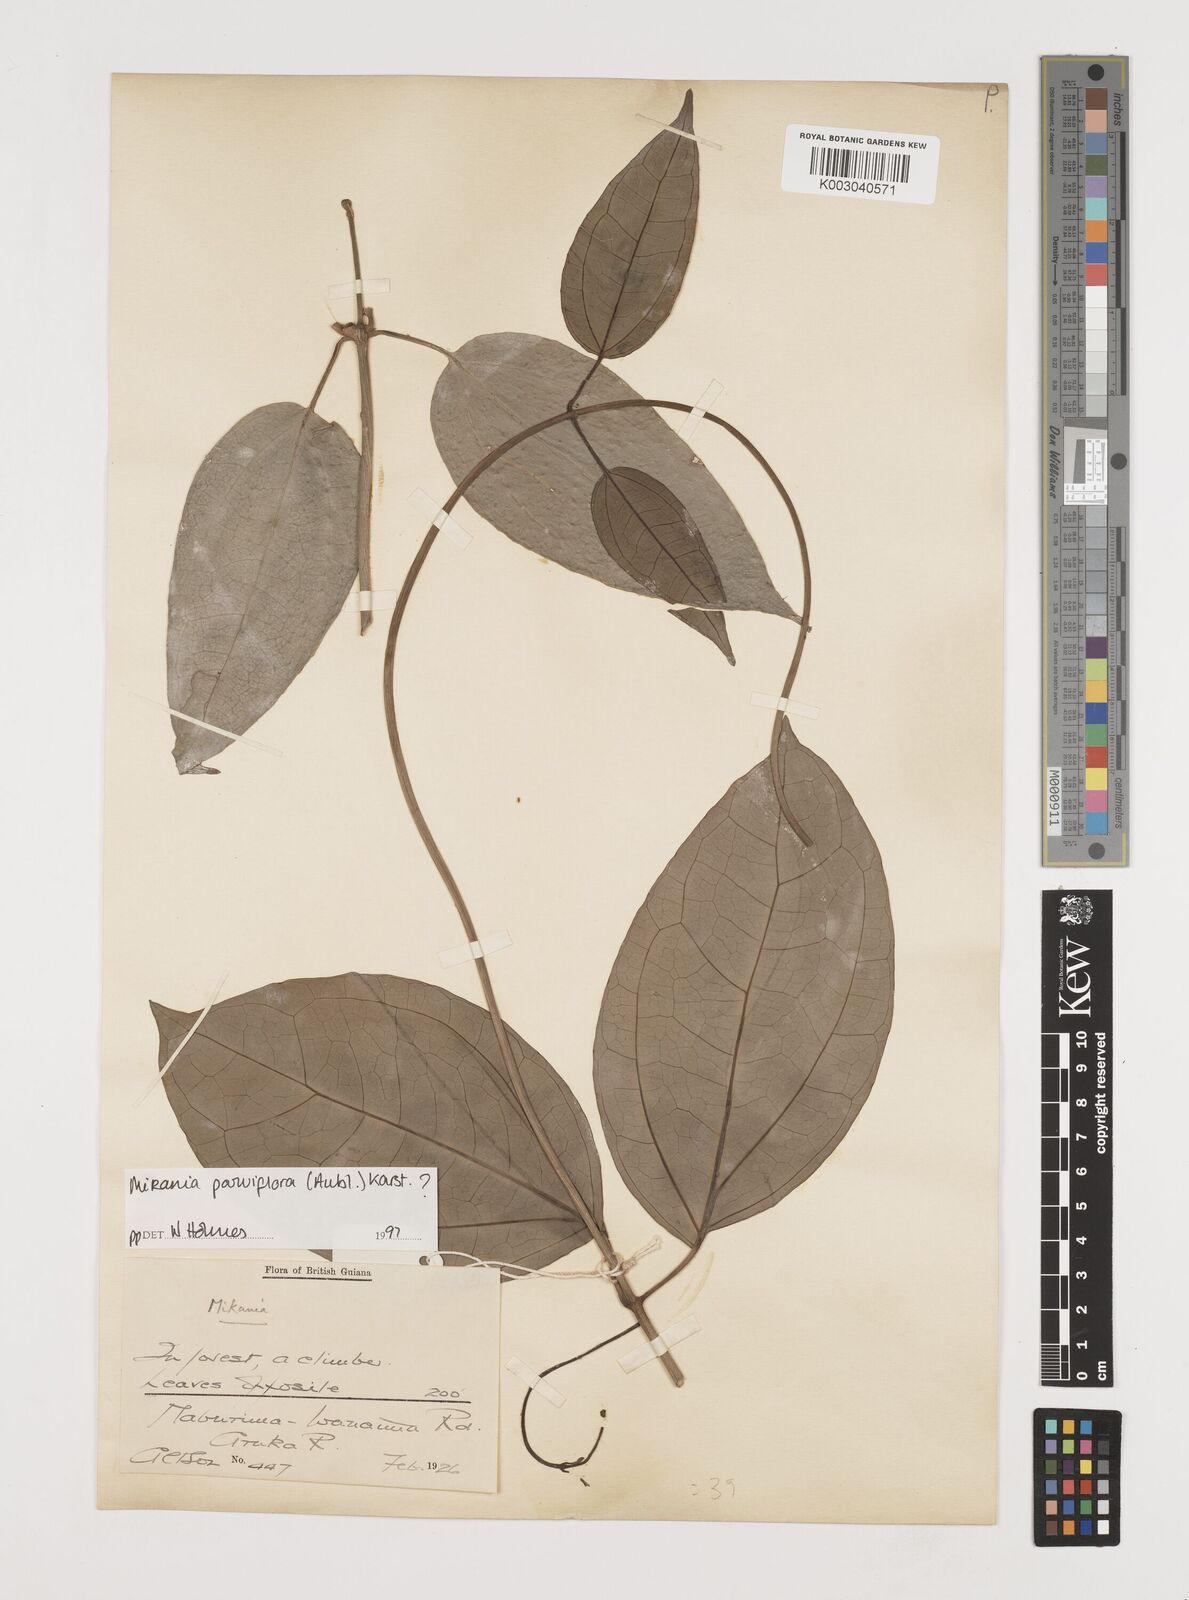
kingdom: Plantae
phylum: Tracheophyta
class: Magnoliopsida
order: Asterales
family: Asteraceae
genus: Mikania
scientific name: Mikania parviflora
